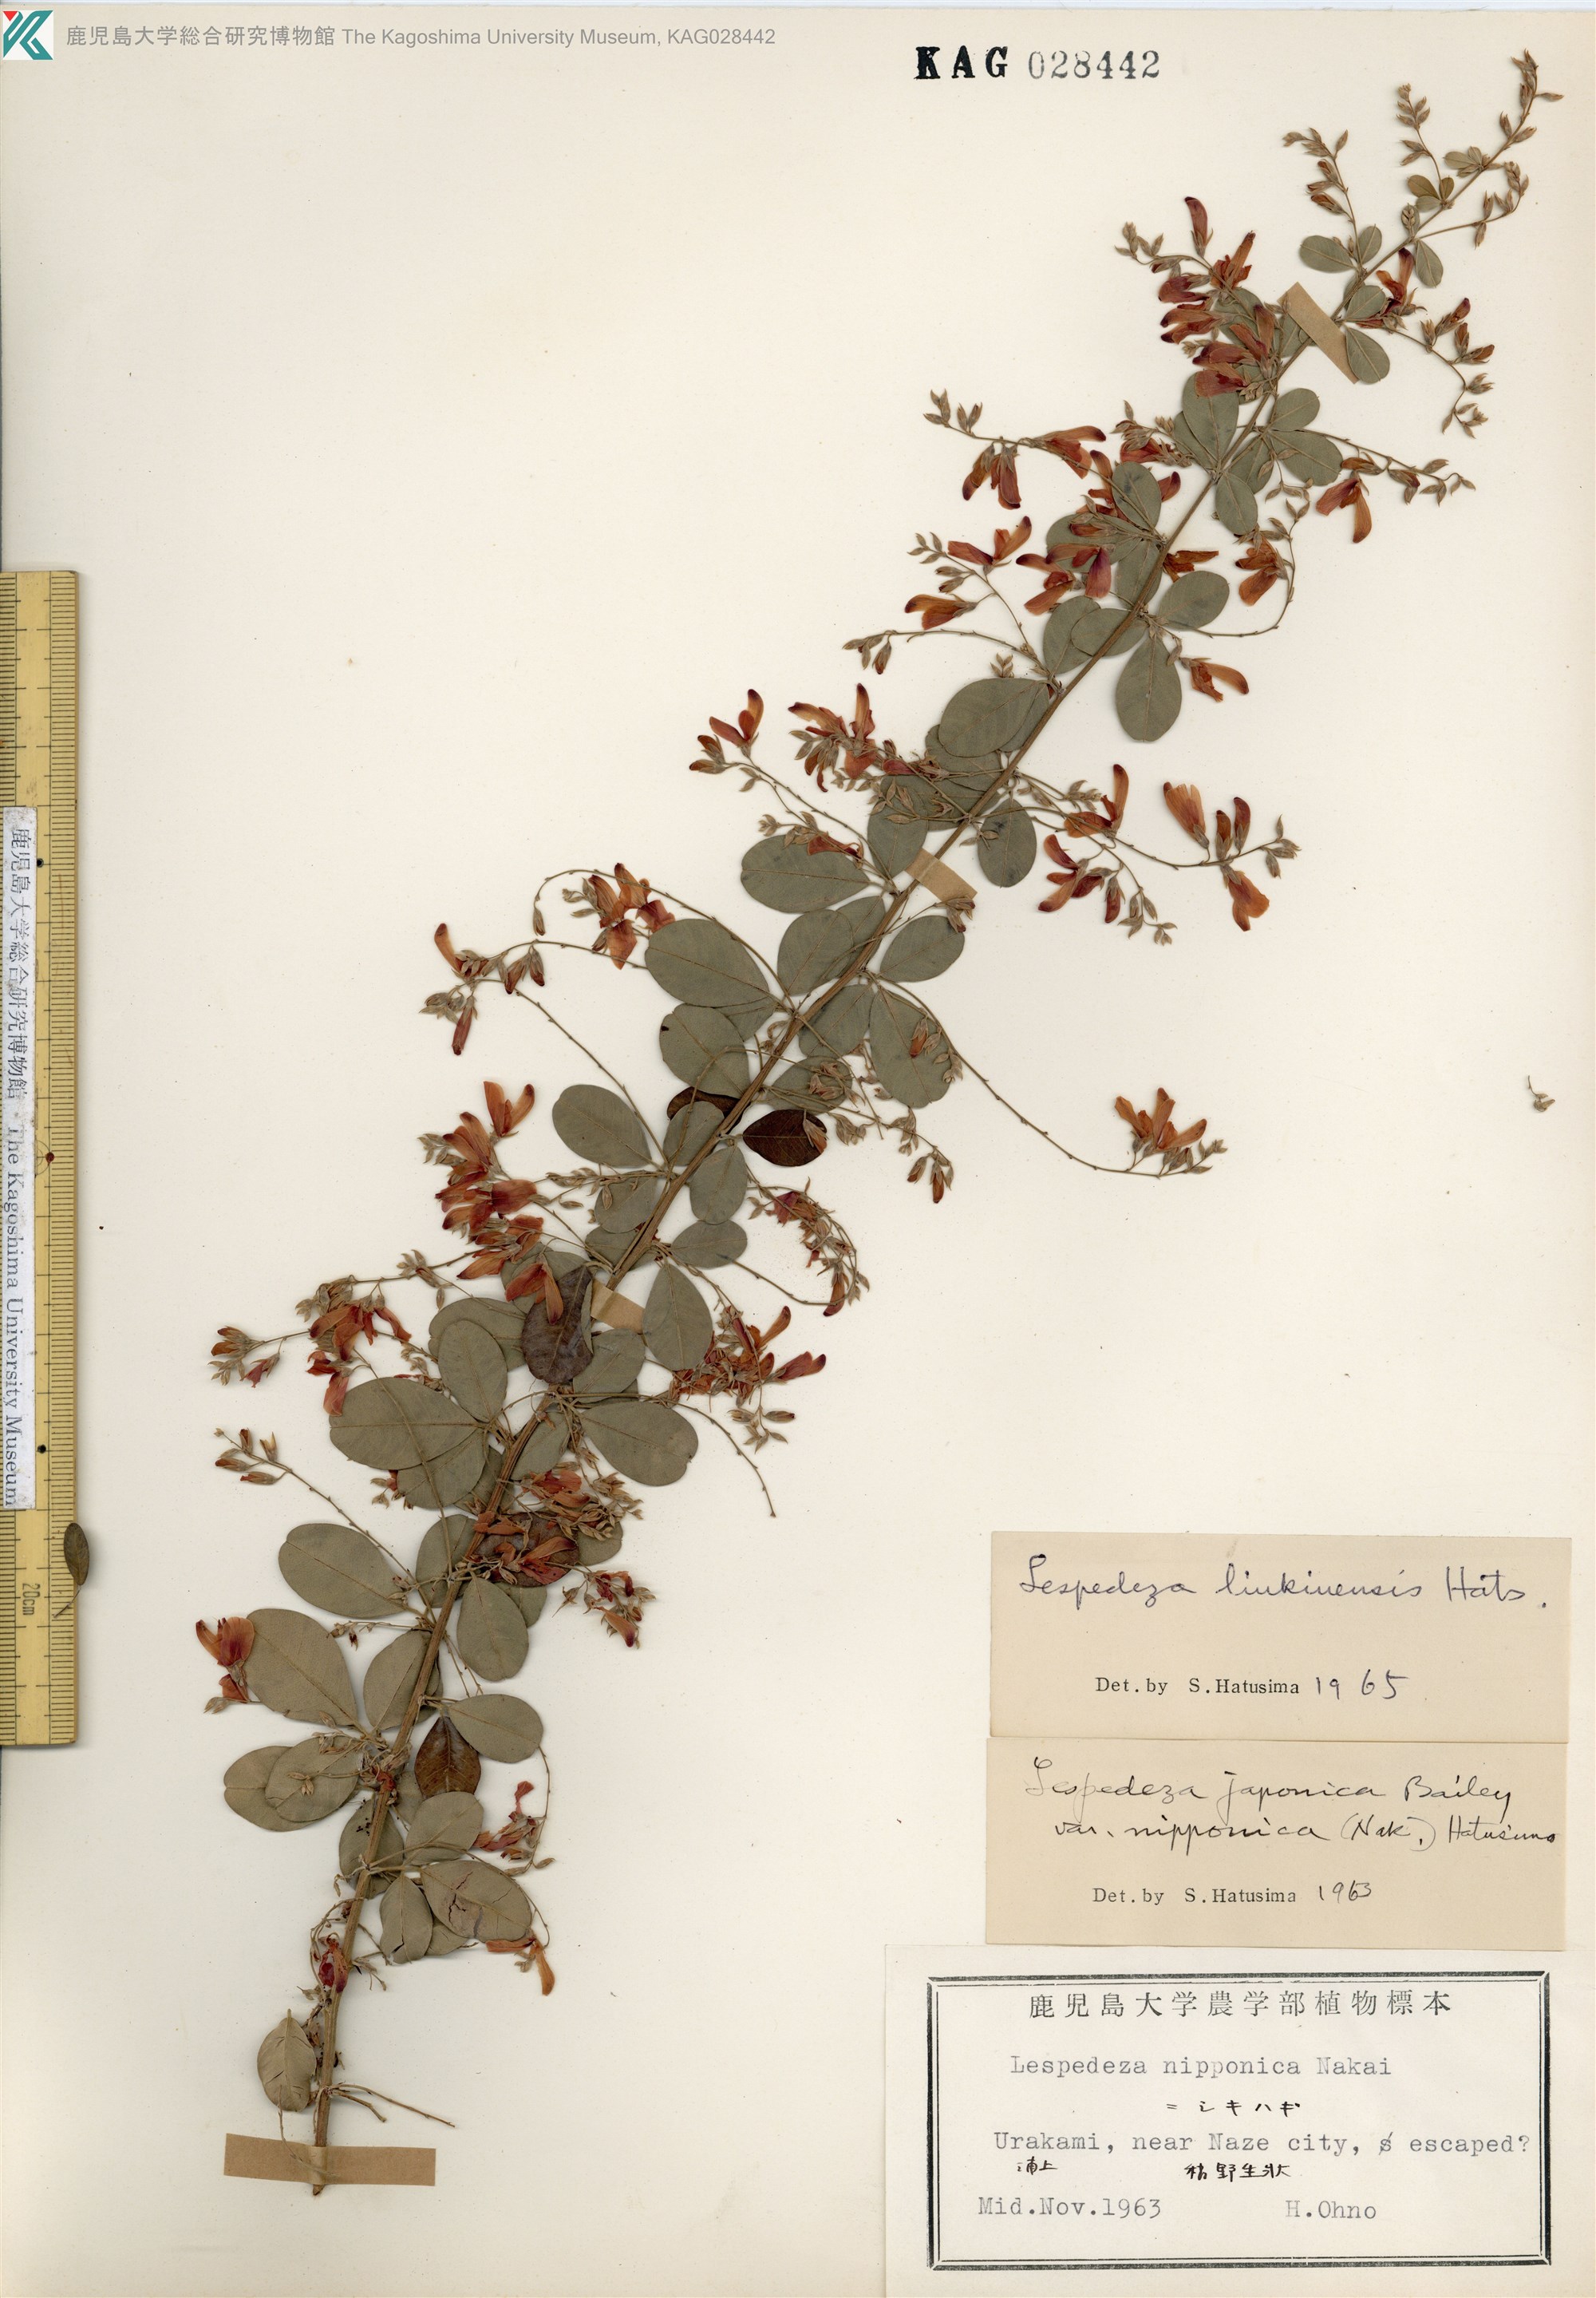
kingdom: Plantae
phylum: Tracheophyta
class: Magnoliopsida
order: Fabales
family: Fabaceae
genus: Lespedeza
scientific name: Lespedeza thunbergii
